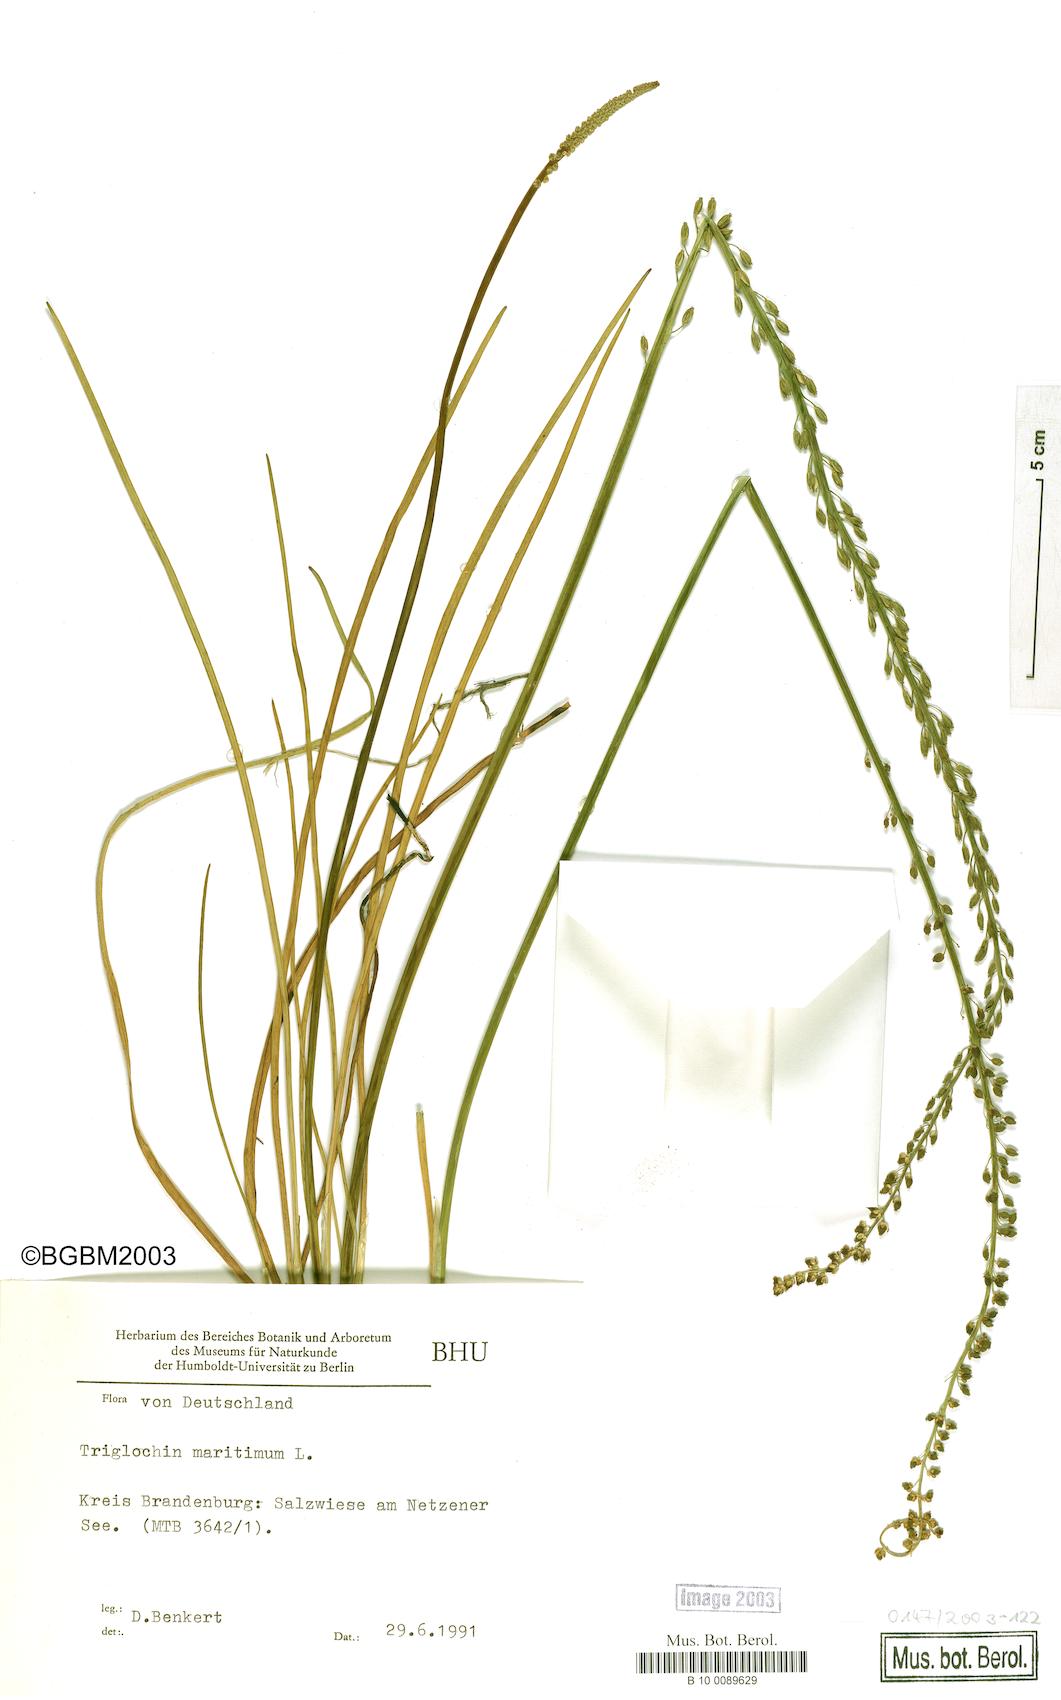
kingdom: Plantae
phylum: Tracheophyta
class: Liliopsida
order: Alismatales
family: Juncaginaceae
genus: Triglochin
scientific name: Triglochin maritima
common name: Sea arrowgrass
